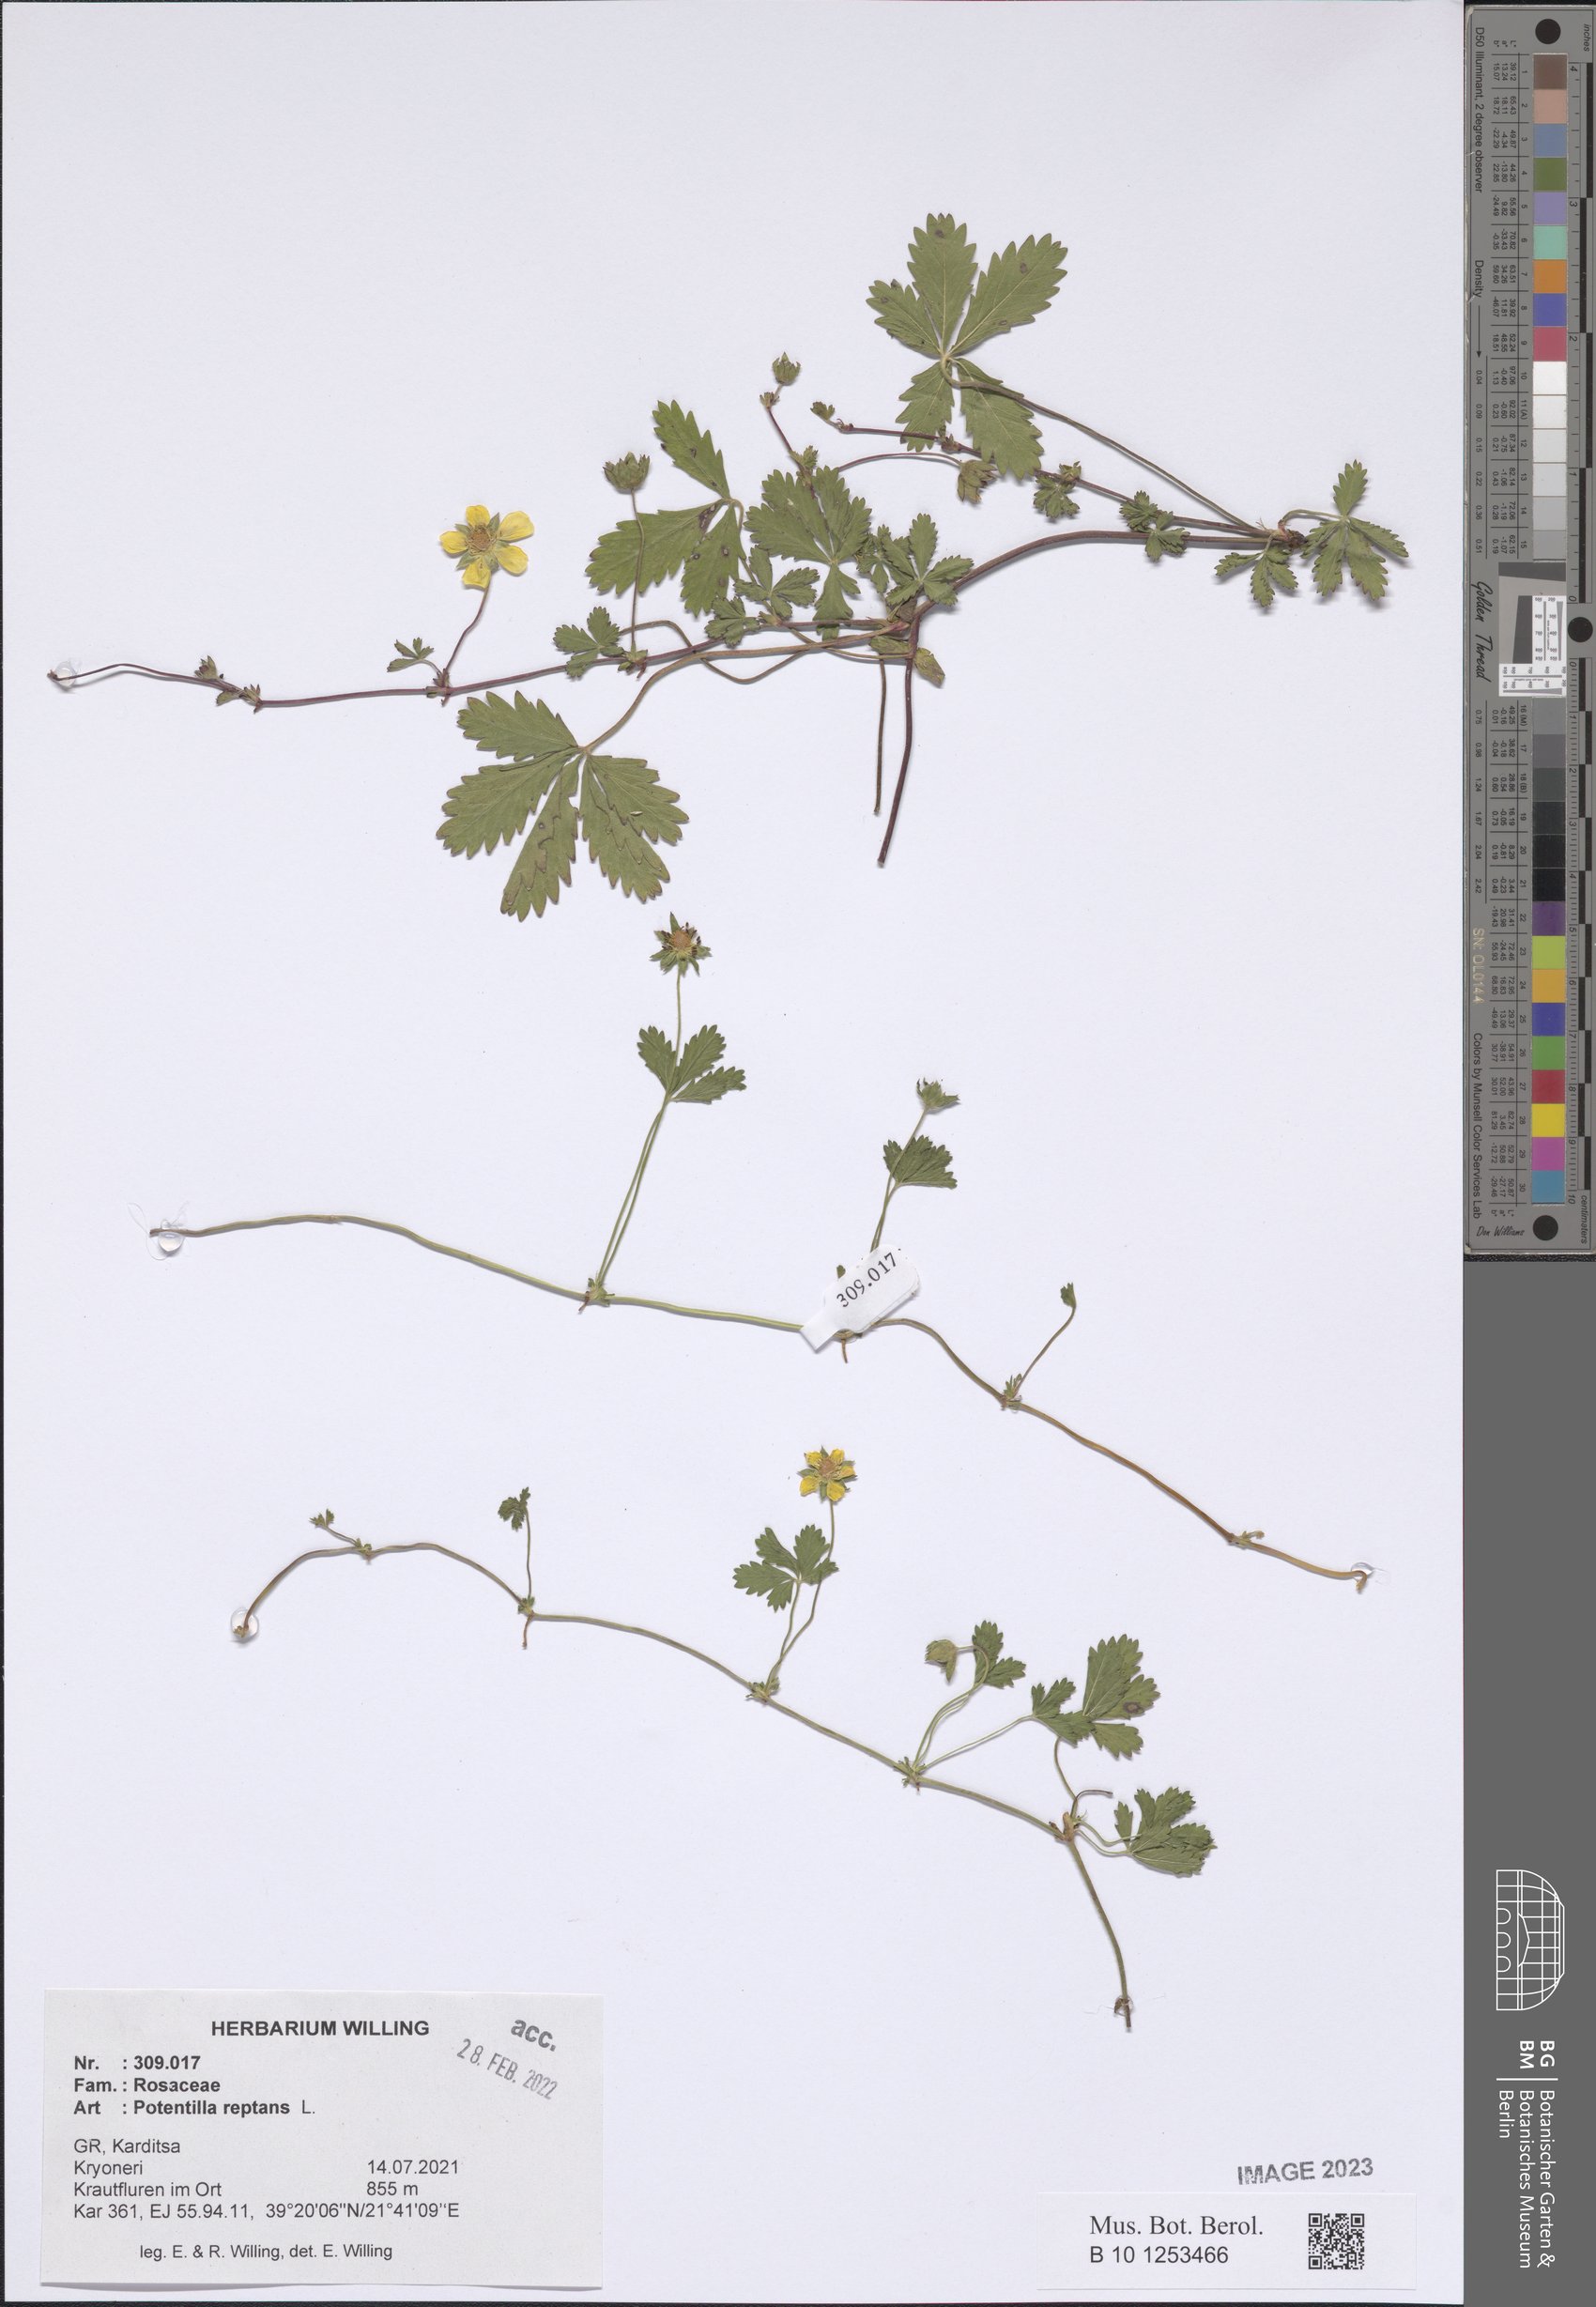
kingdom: Plantae
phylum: Tracheophyta
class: Magnoliopsida
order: Rosales
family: Rosaceae
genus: Potentilla
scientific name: Potentilla reptans
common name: Creeping cinquefoil
